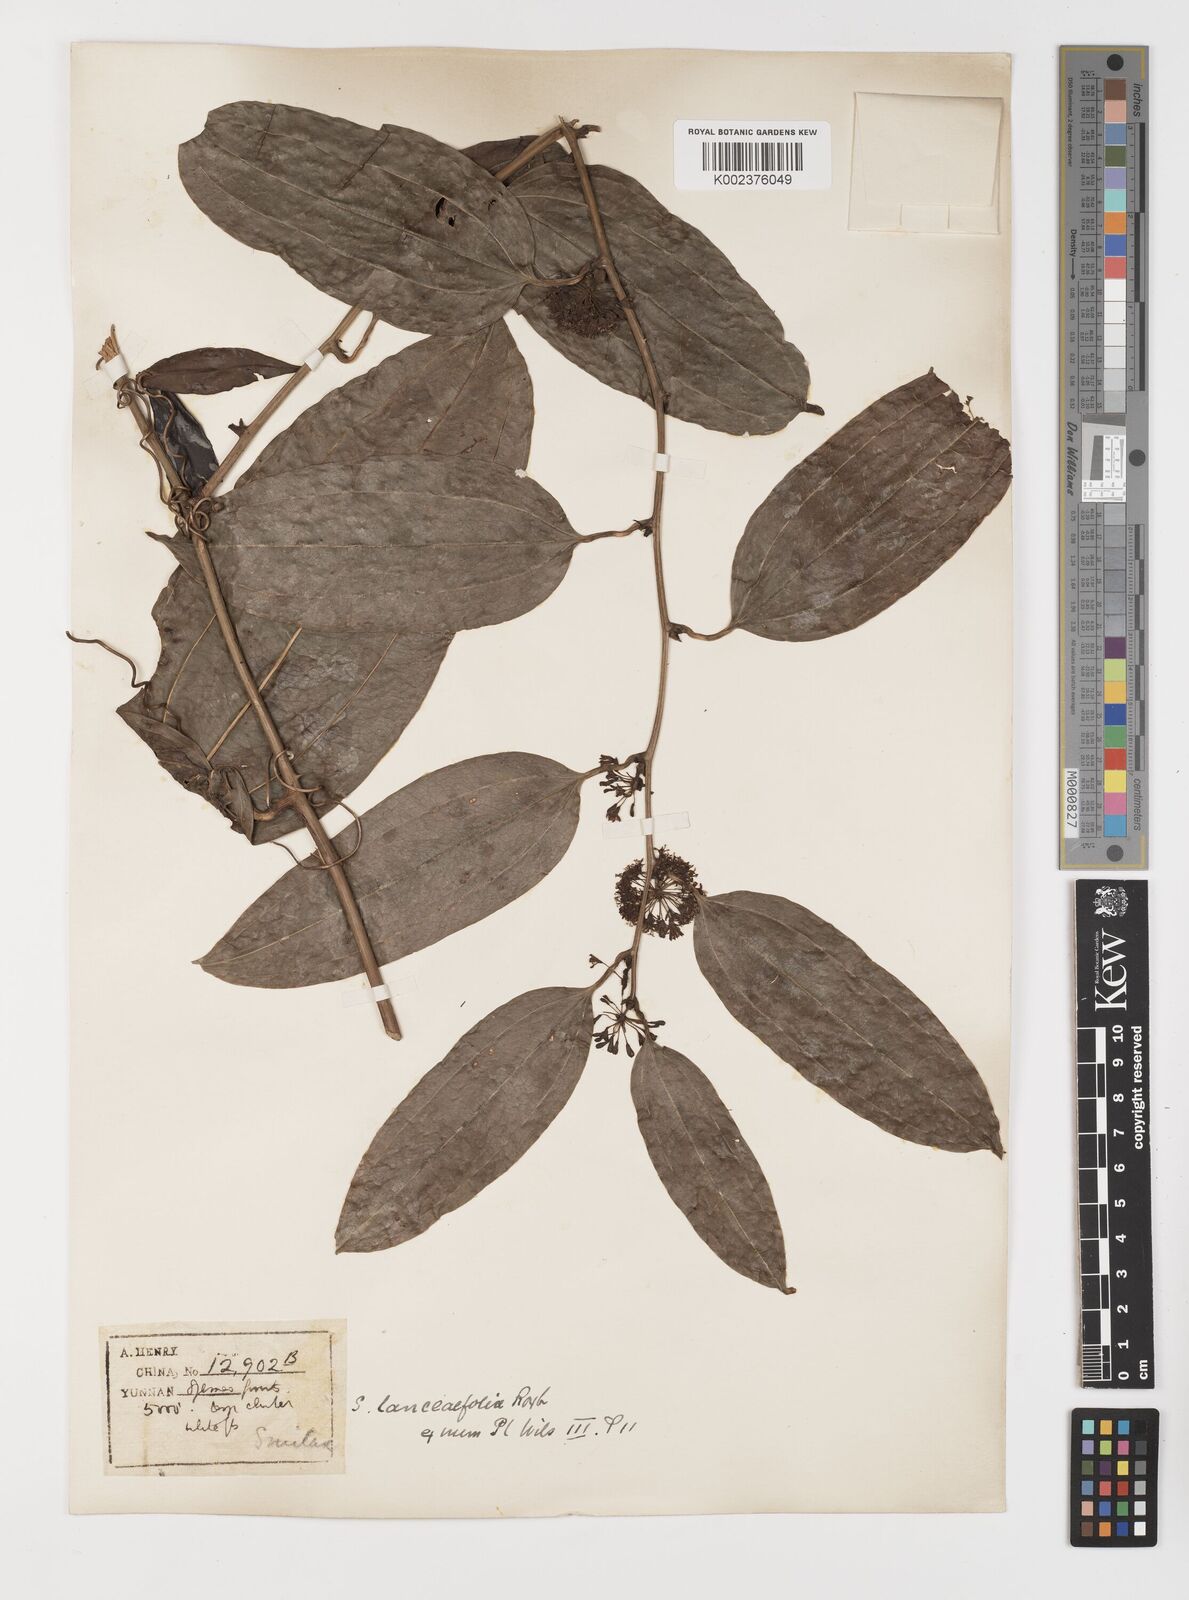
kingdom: Plantae
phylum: Tracheophyta
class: Liliopsida
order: Liliales
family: Smilacaceae
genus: Smilax
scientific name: Smilax lanceifolia
